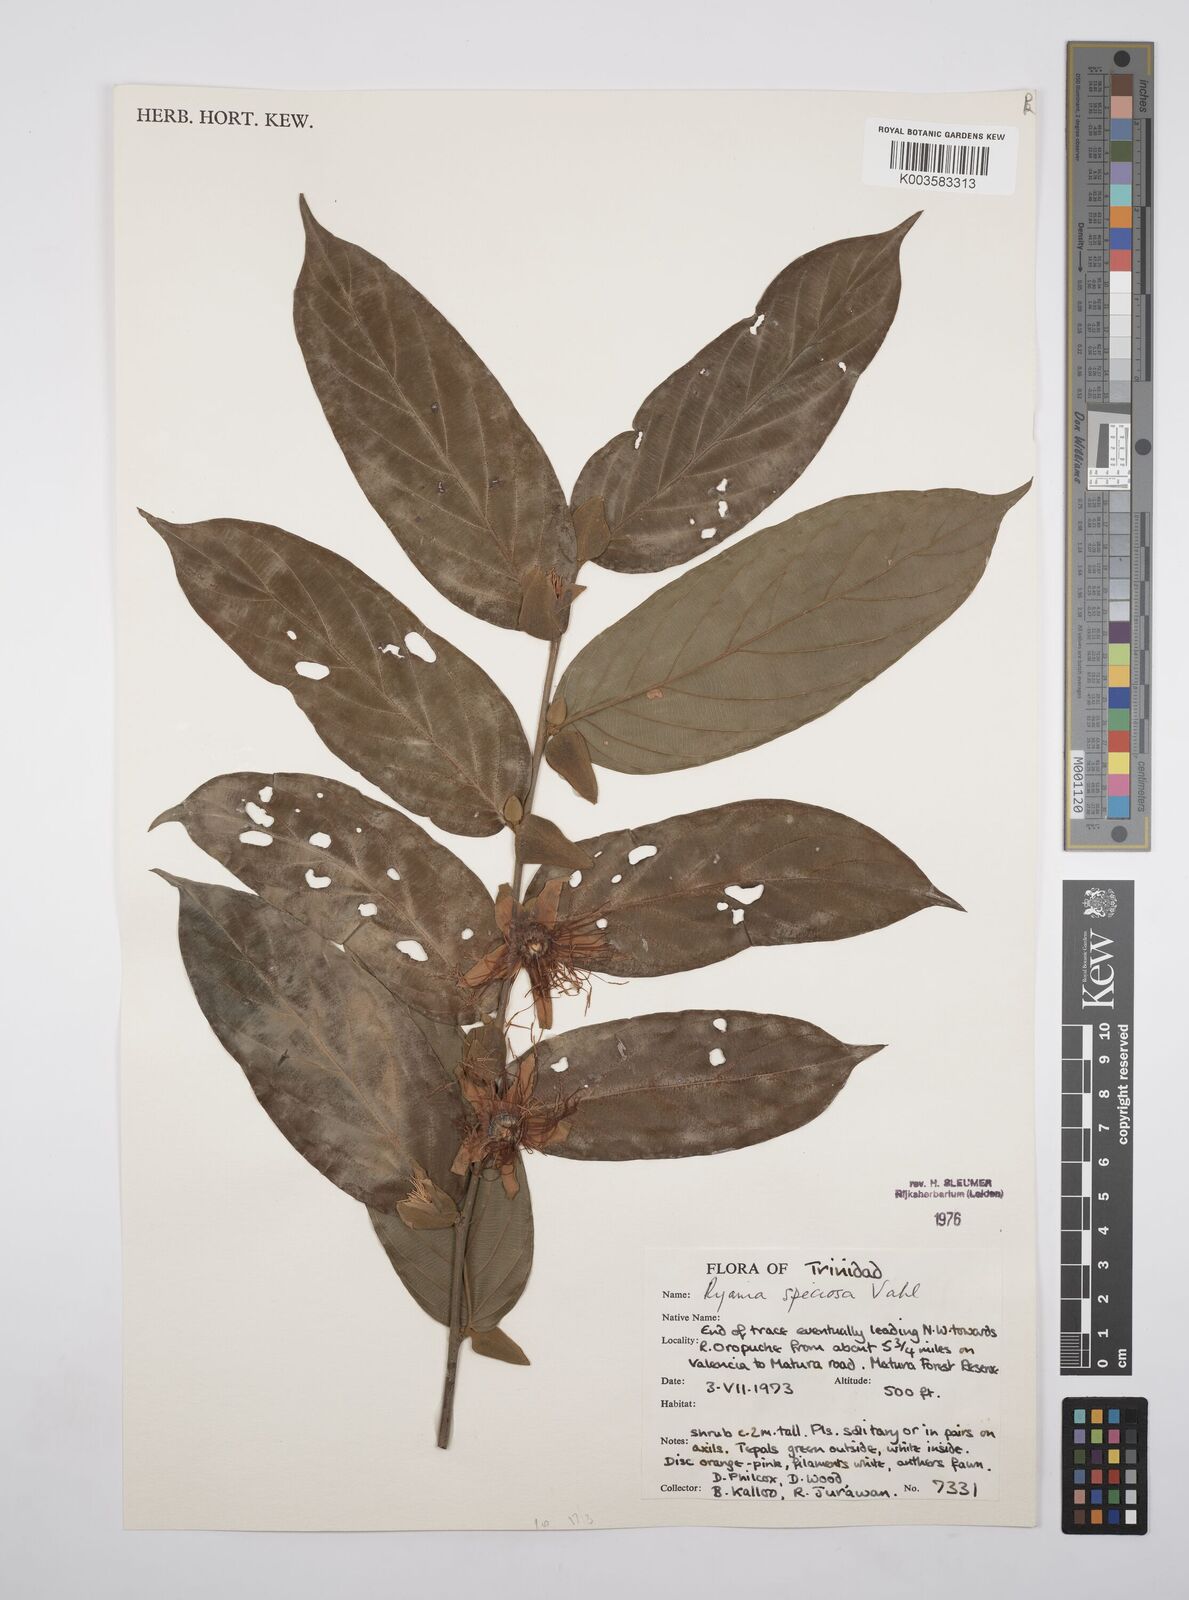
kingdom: Plantae
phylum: Tracheophyta
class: Magnoliopsida
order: Malpighiales
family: Salicaceae
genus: Ryania
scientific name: Ryania speciosa
